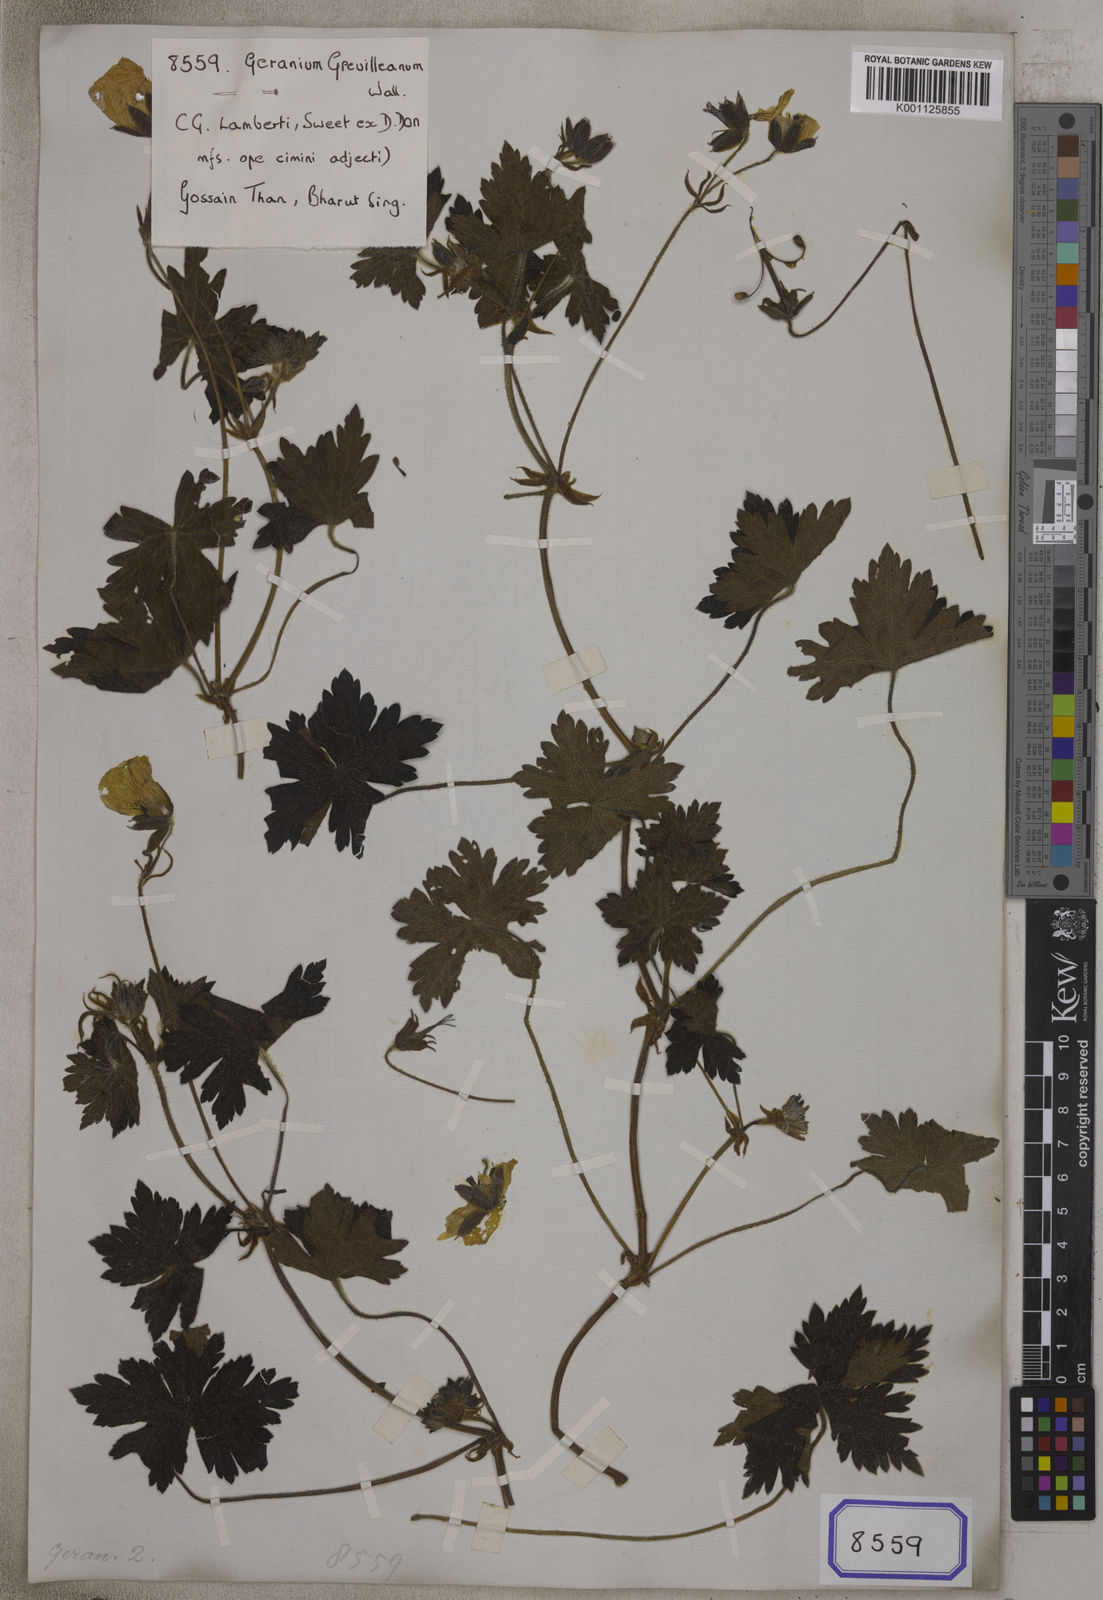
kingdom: Plantae
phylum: Tracheophyta
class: Magnoliopsida
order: Geraniales
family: Geraniaceae
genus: Geranium
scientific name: Geranium lambertii
